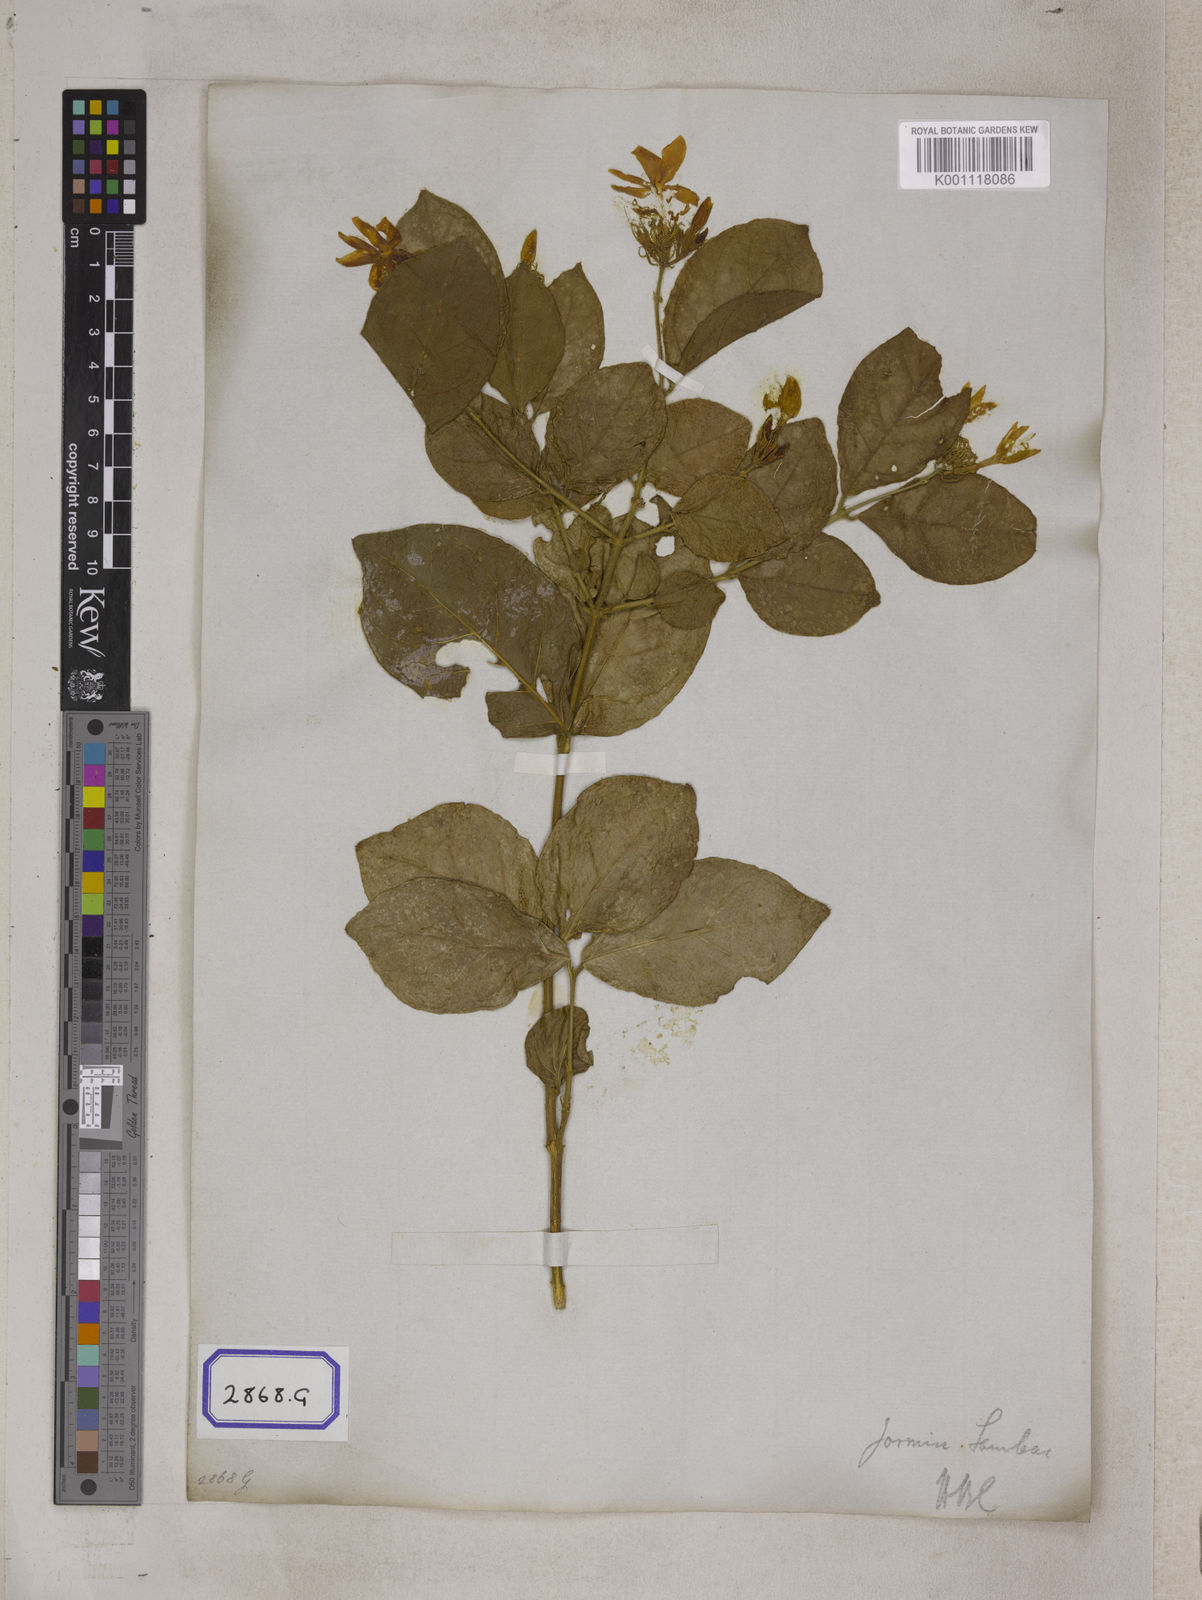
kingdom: Plantae
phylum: Tracheophyta
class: Magnoliopsida
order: Lamiales
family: Oleaceae
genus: Jasminum
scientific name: Jasminum sambac
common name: Arabian jasmine
